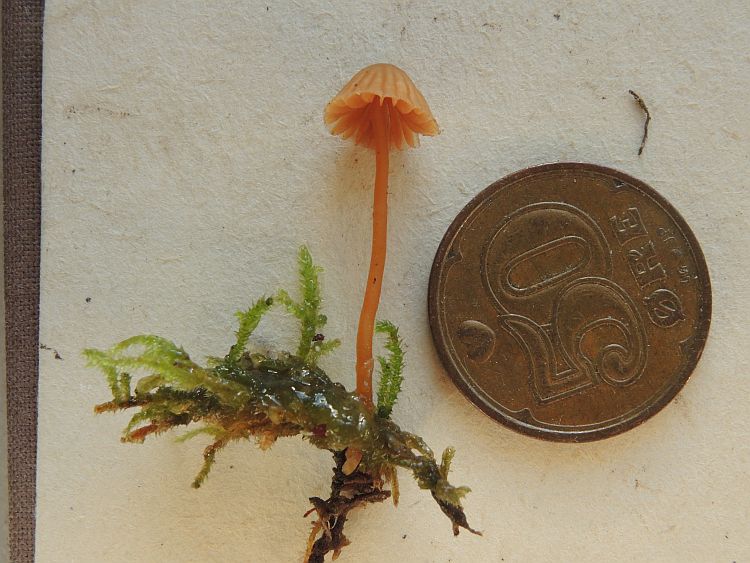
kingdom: Fungi
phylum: Basidiomycota
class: Agaricomycetes
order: Agaricales
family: Hymenogastraceae
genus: Galerina
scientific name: Galerina vittiformis
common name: Hairy leg bell
